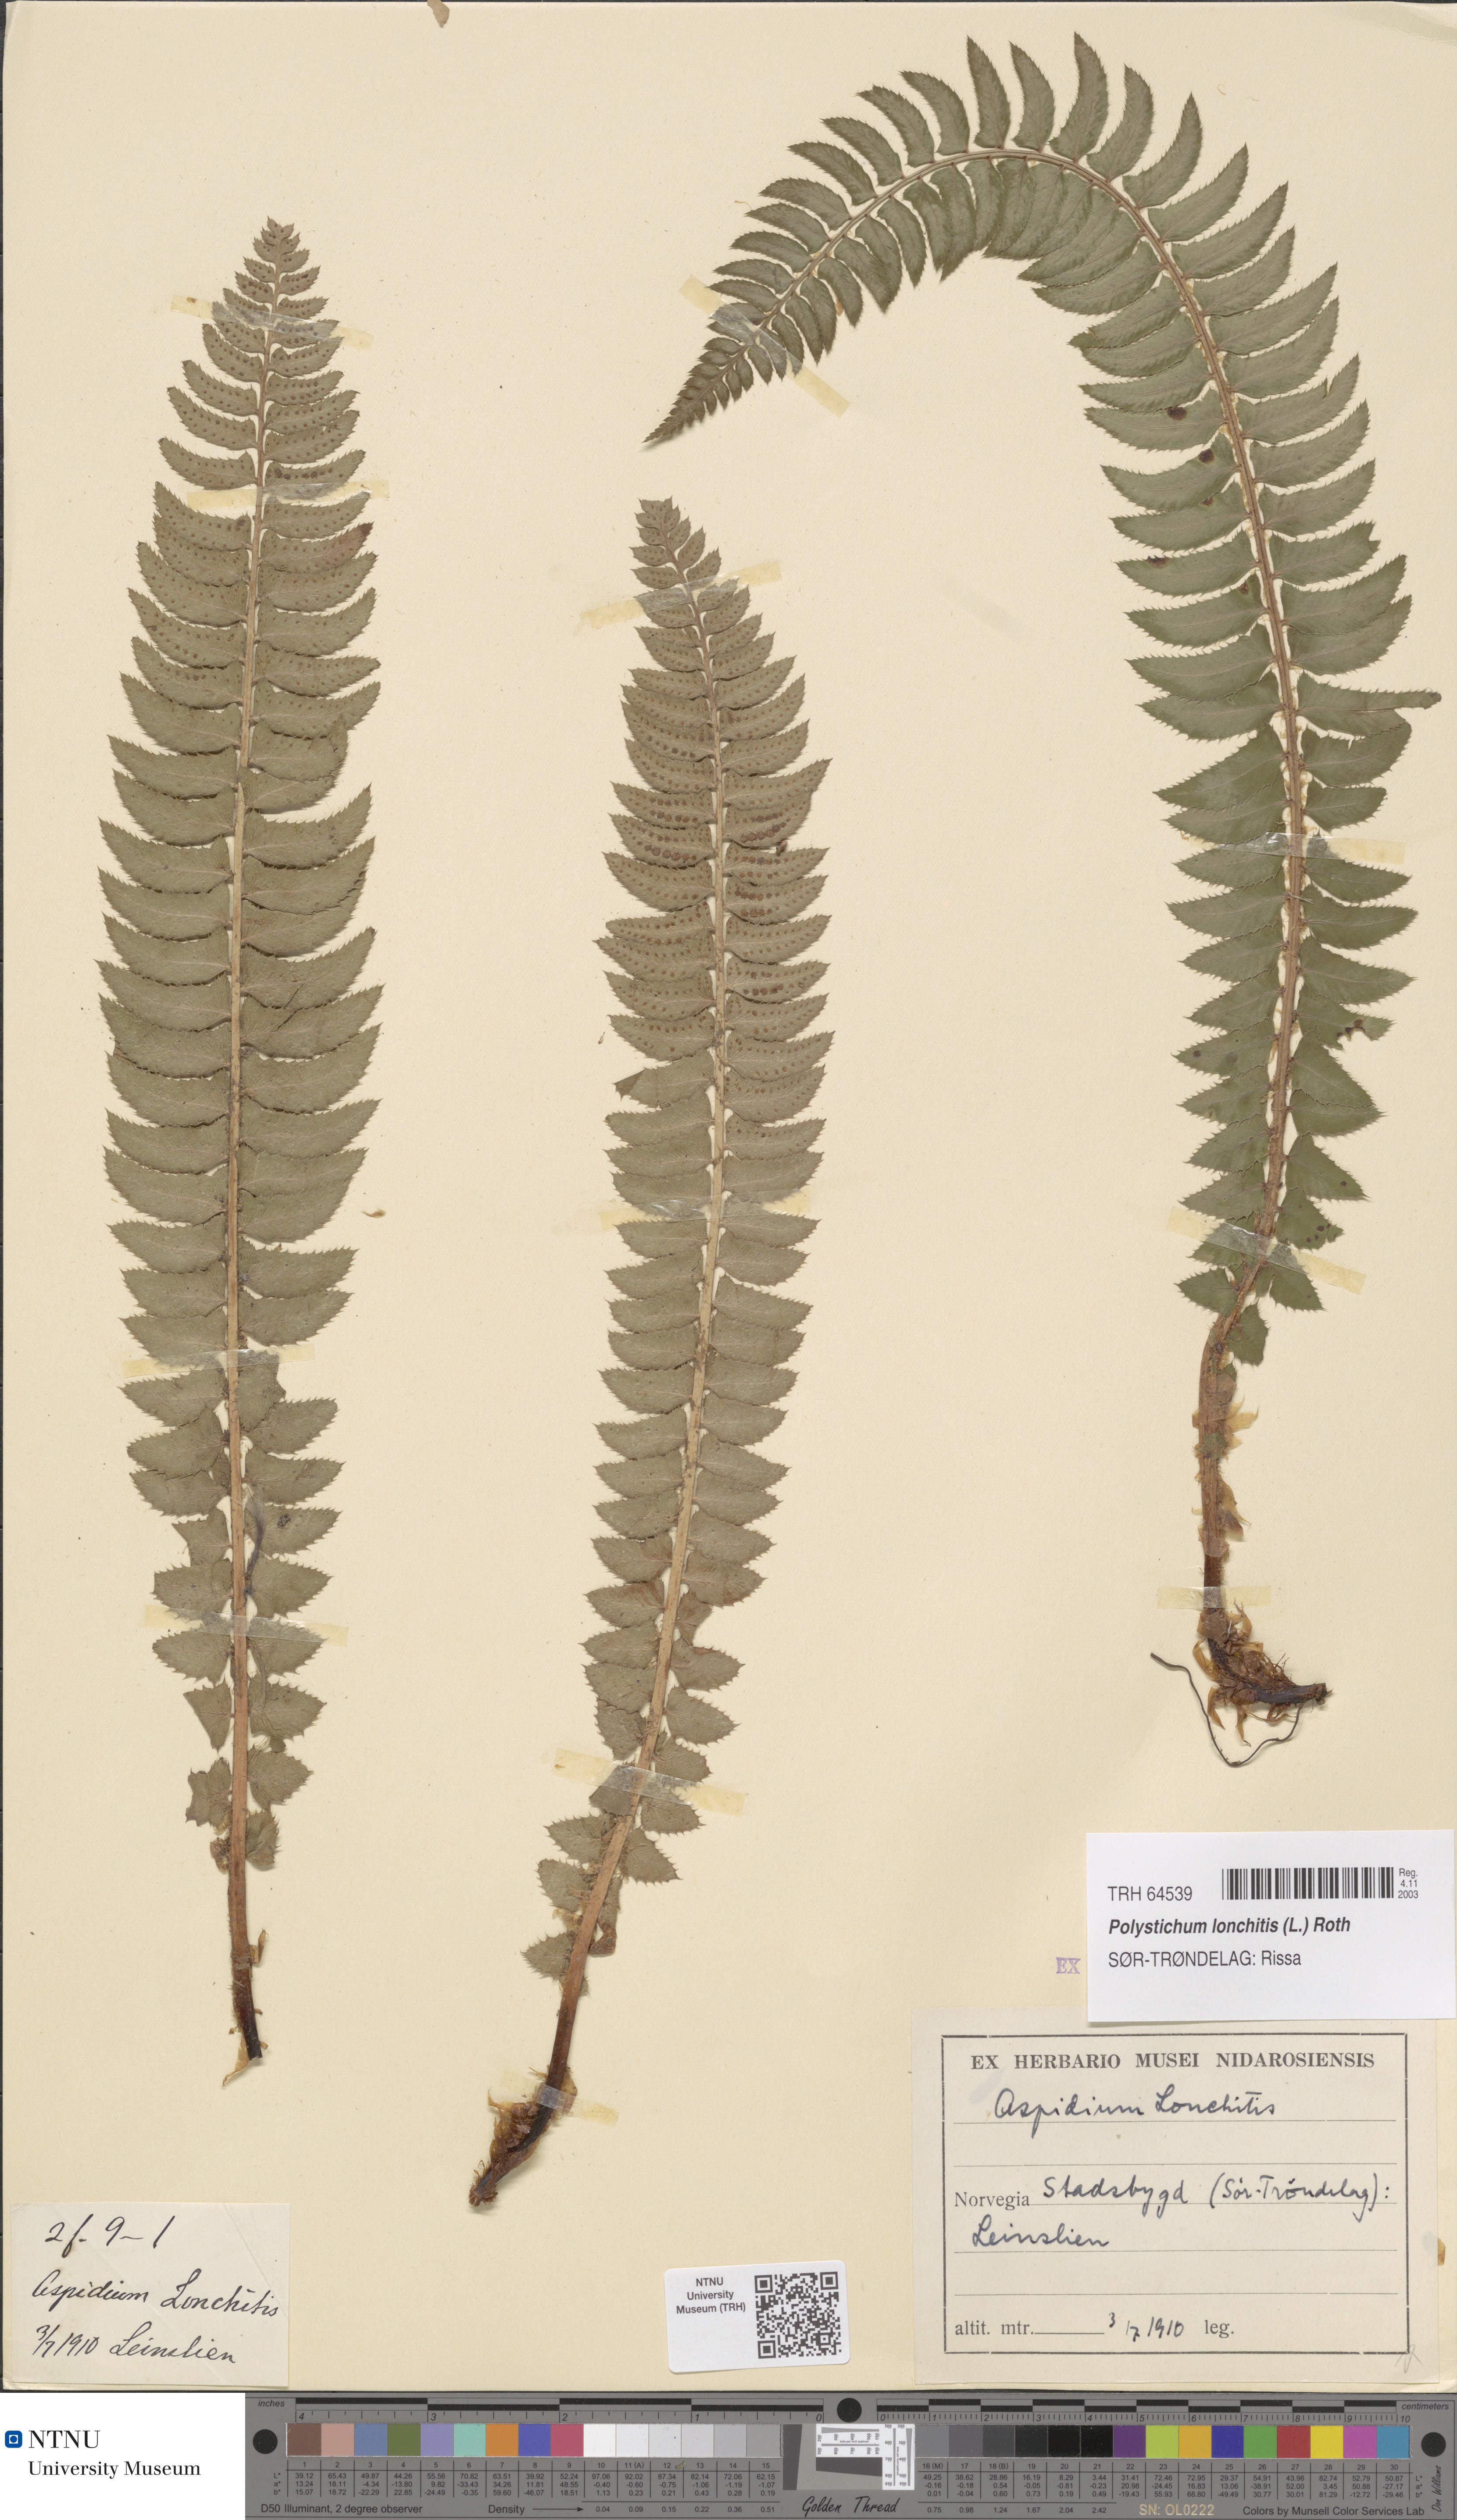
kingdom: Plantae
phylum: Tracheophyta
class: Polypodiopsida
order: Polypodiales
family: Dryopteridaceae
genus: Polystichum
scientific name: Polystichum lonchitis
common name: Holly fern
